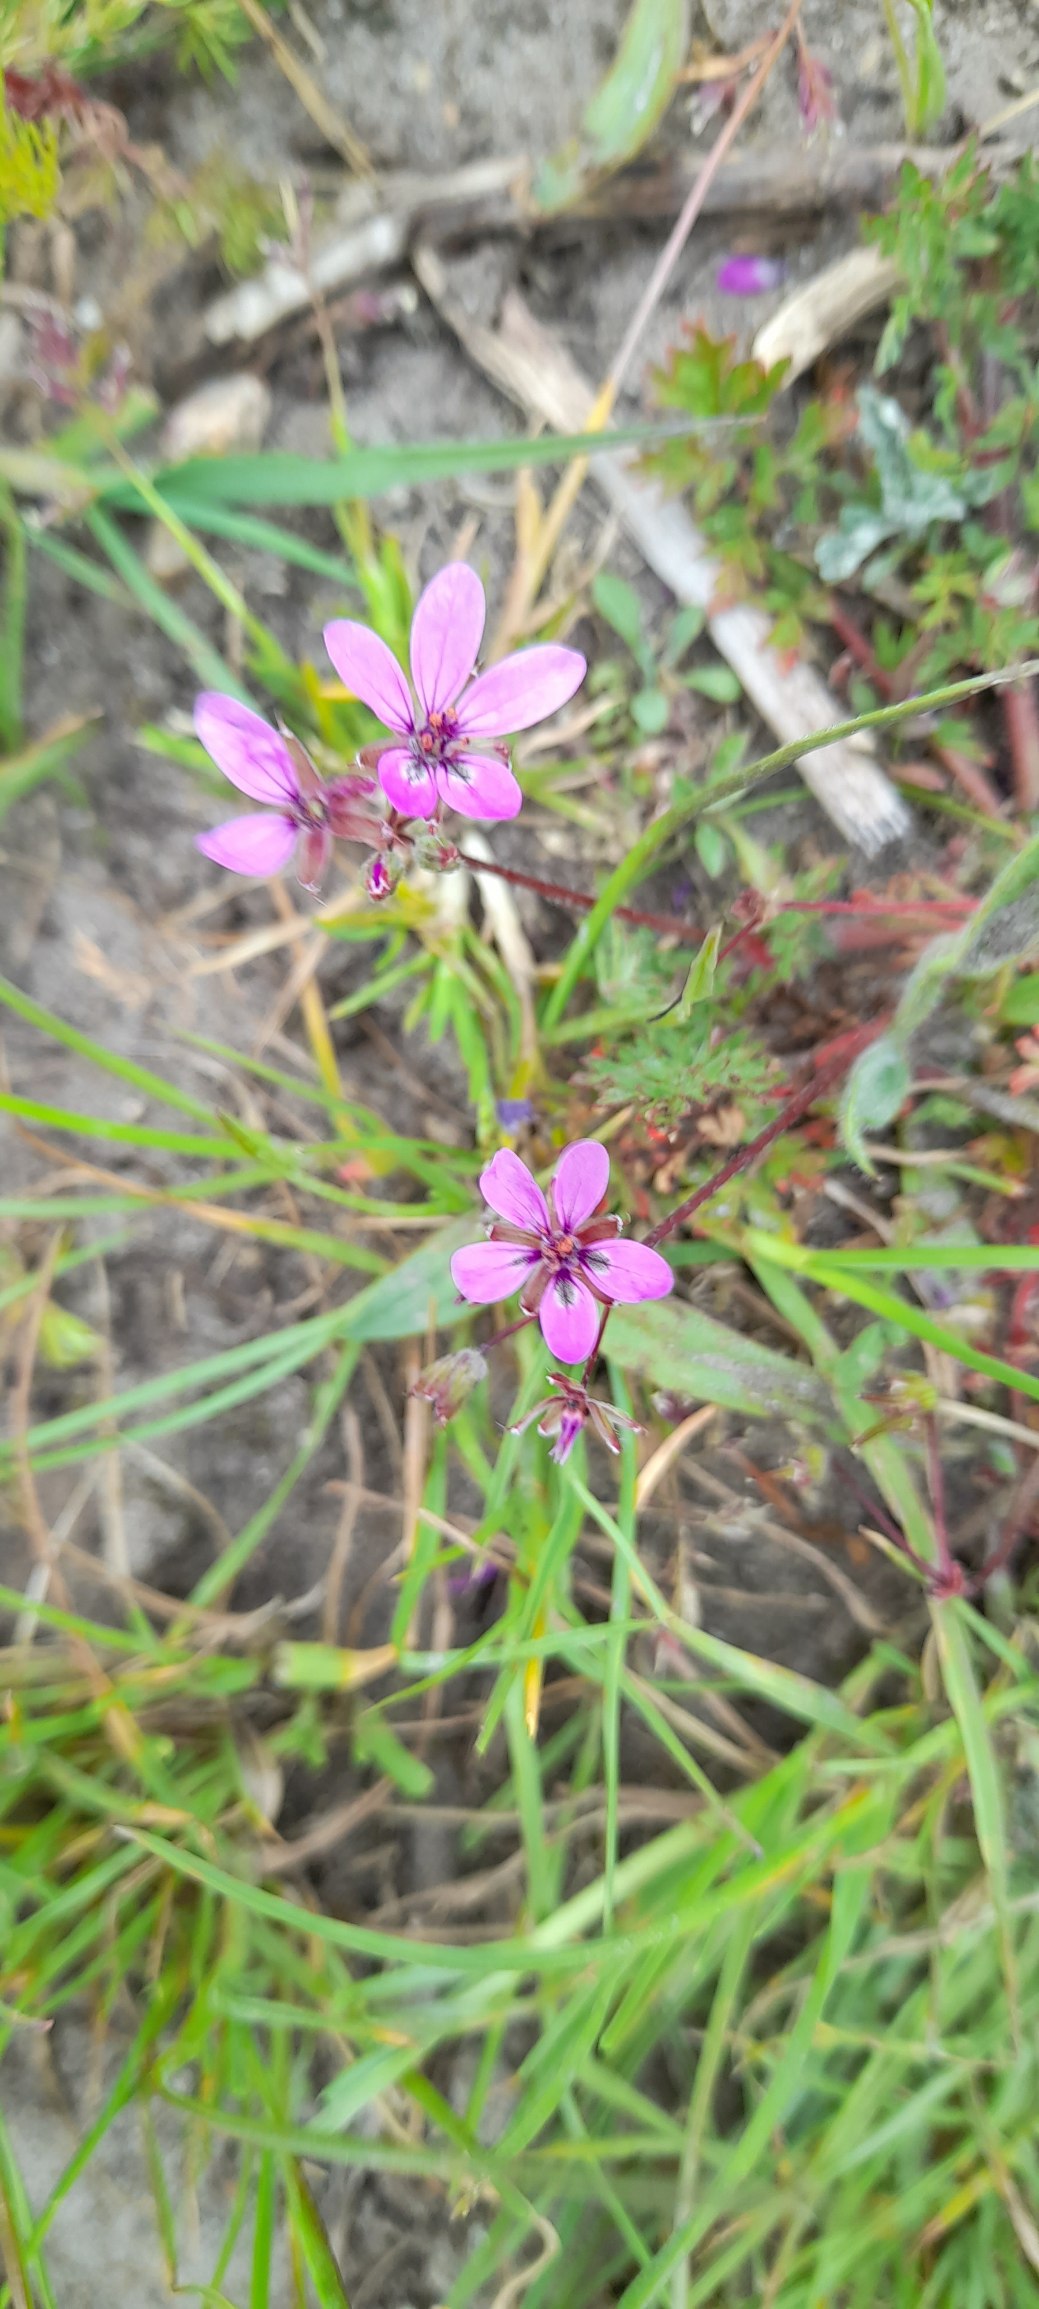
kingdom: Plantae
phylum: Tracheophyta
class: Magnoliopsida
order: Geraniales
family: Geraniaceae
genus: Erodium
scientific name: Erodium cicutarium
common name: Hejrenæb
